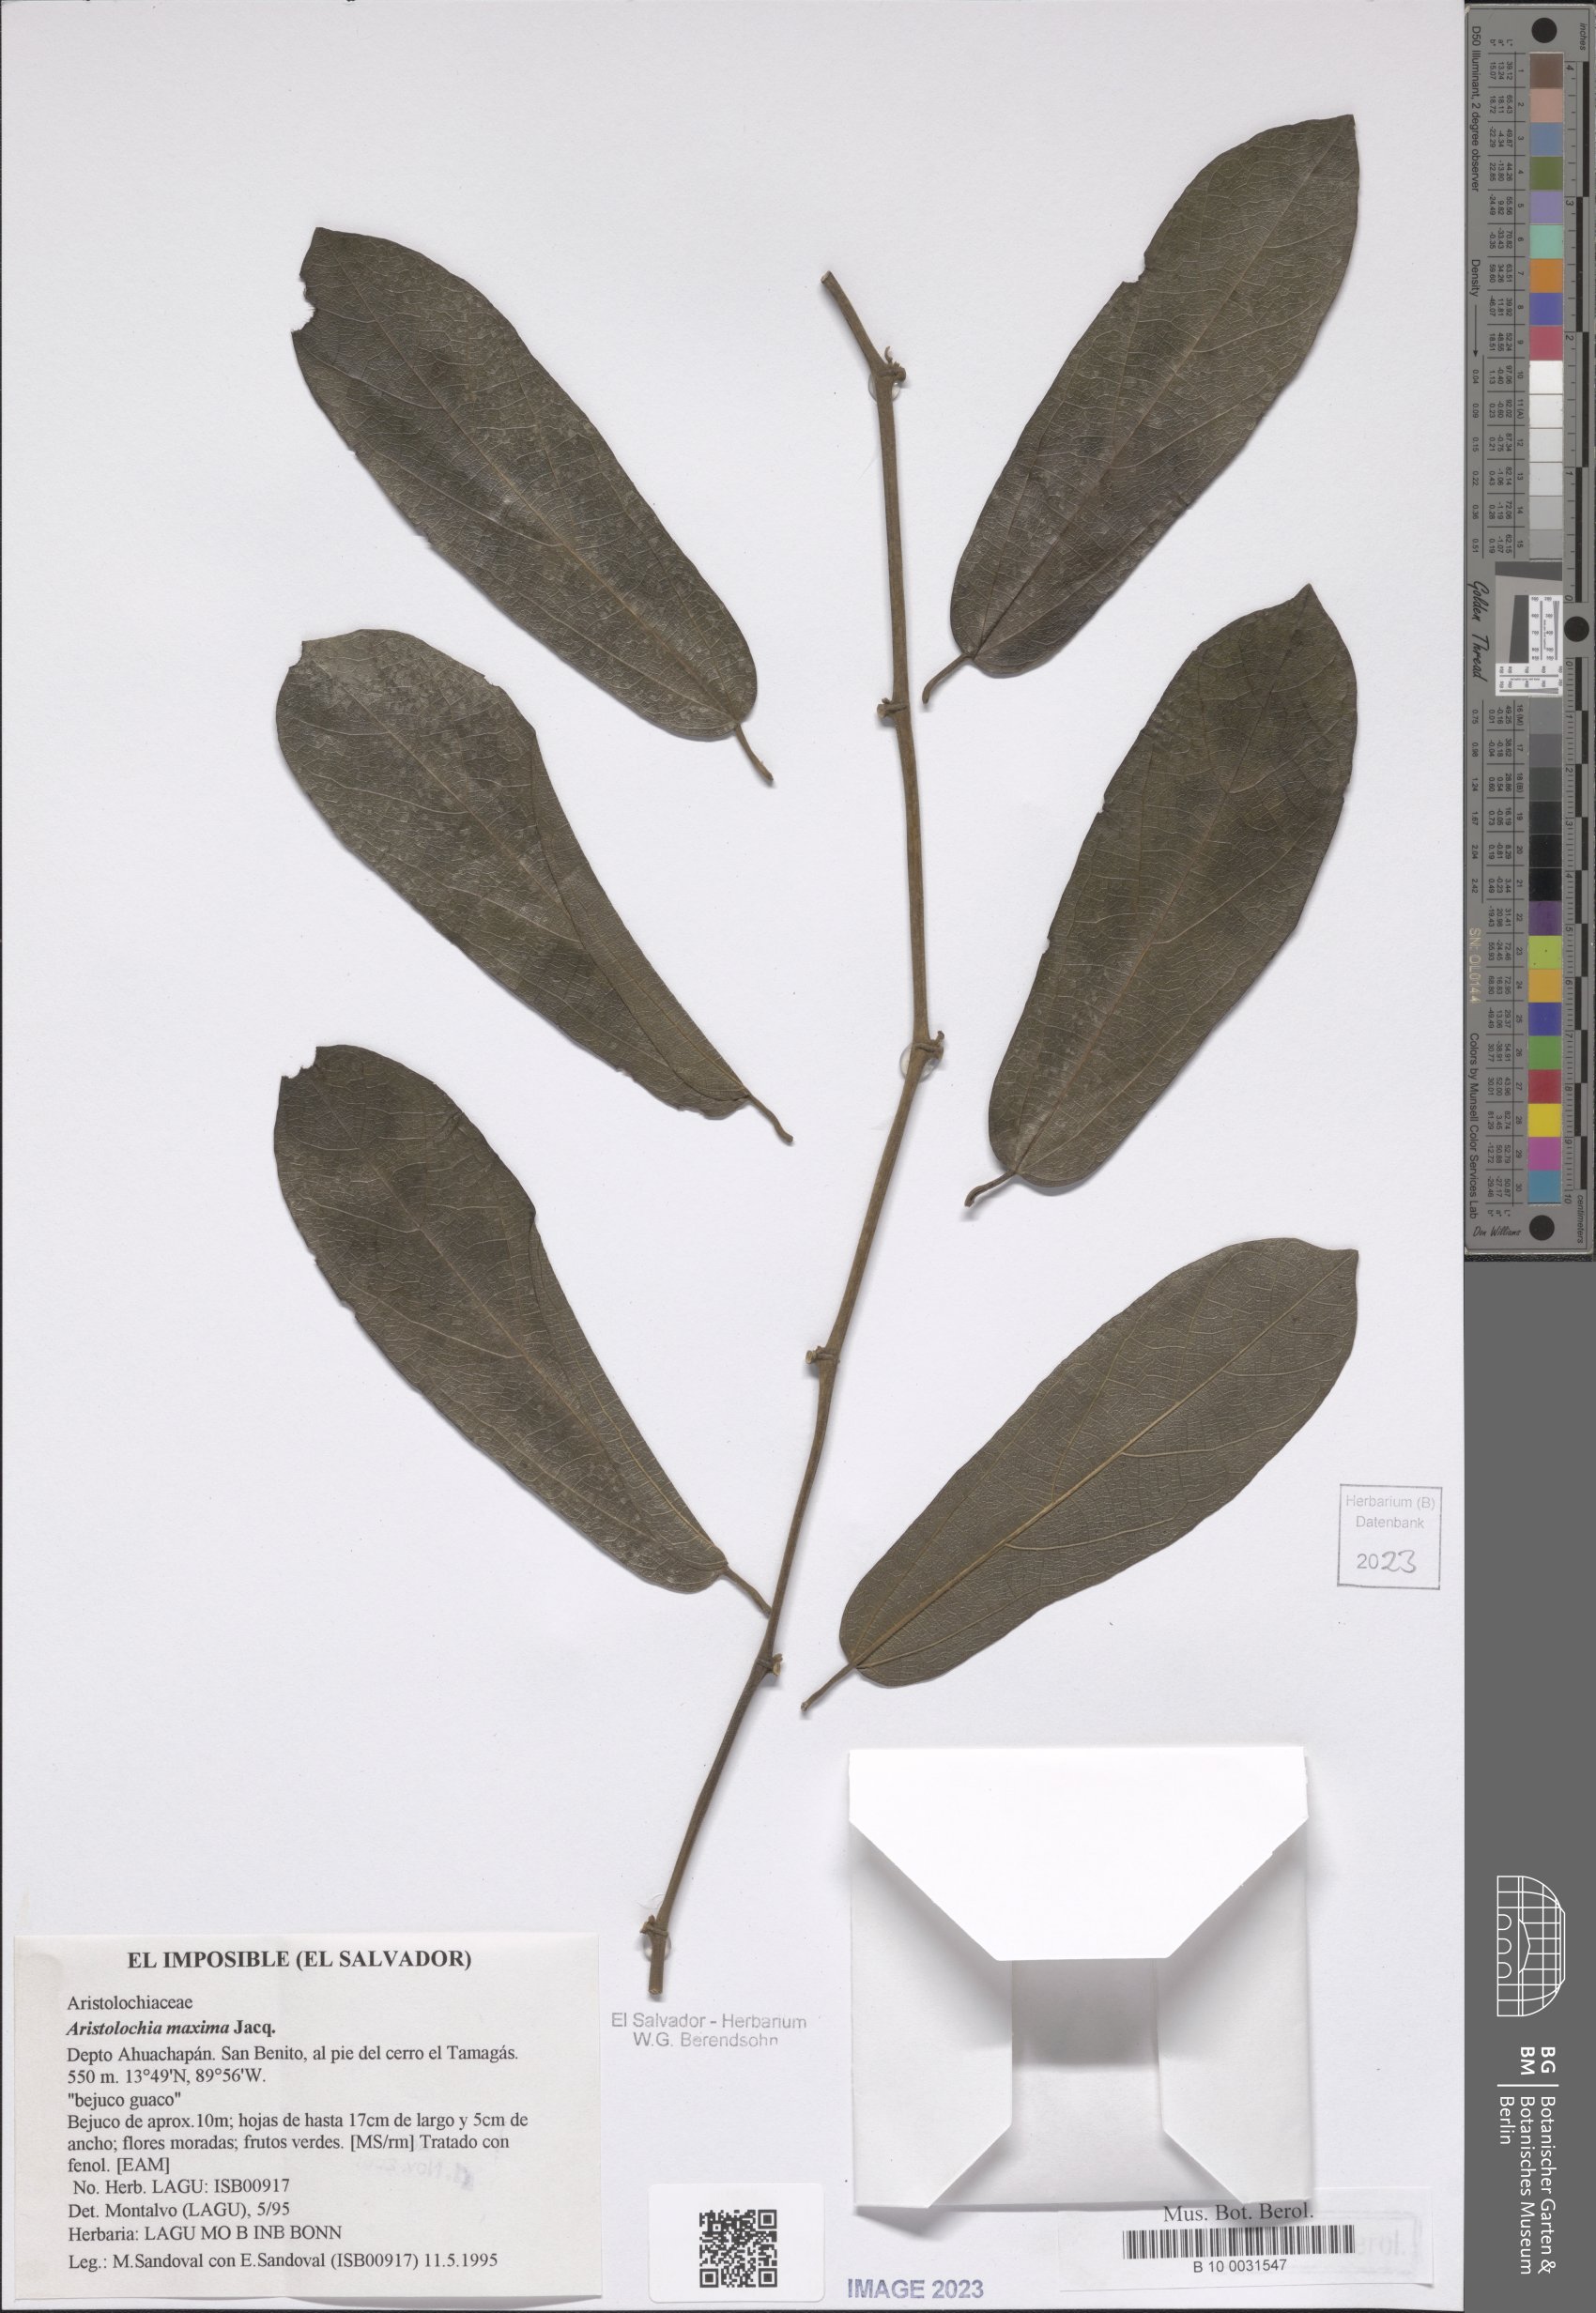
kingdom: Plantae
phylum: Tracheophyta
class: Magnoliopsida
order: Piperales
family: Aristolochiaceae
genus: Aristolochia
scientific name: Aristolochia maxima
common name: Florida dutchman's pipe
